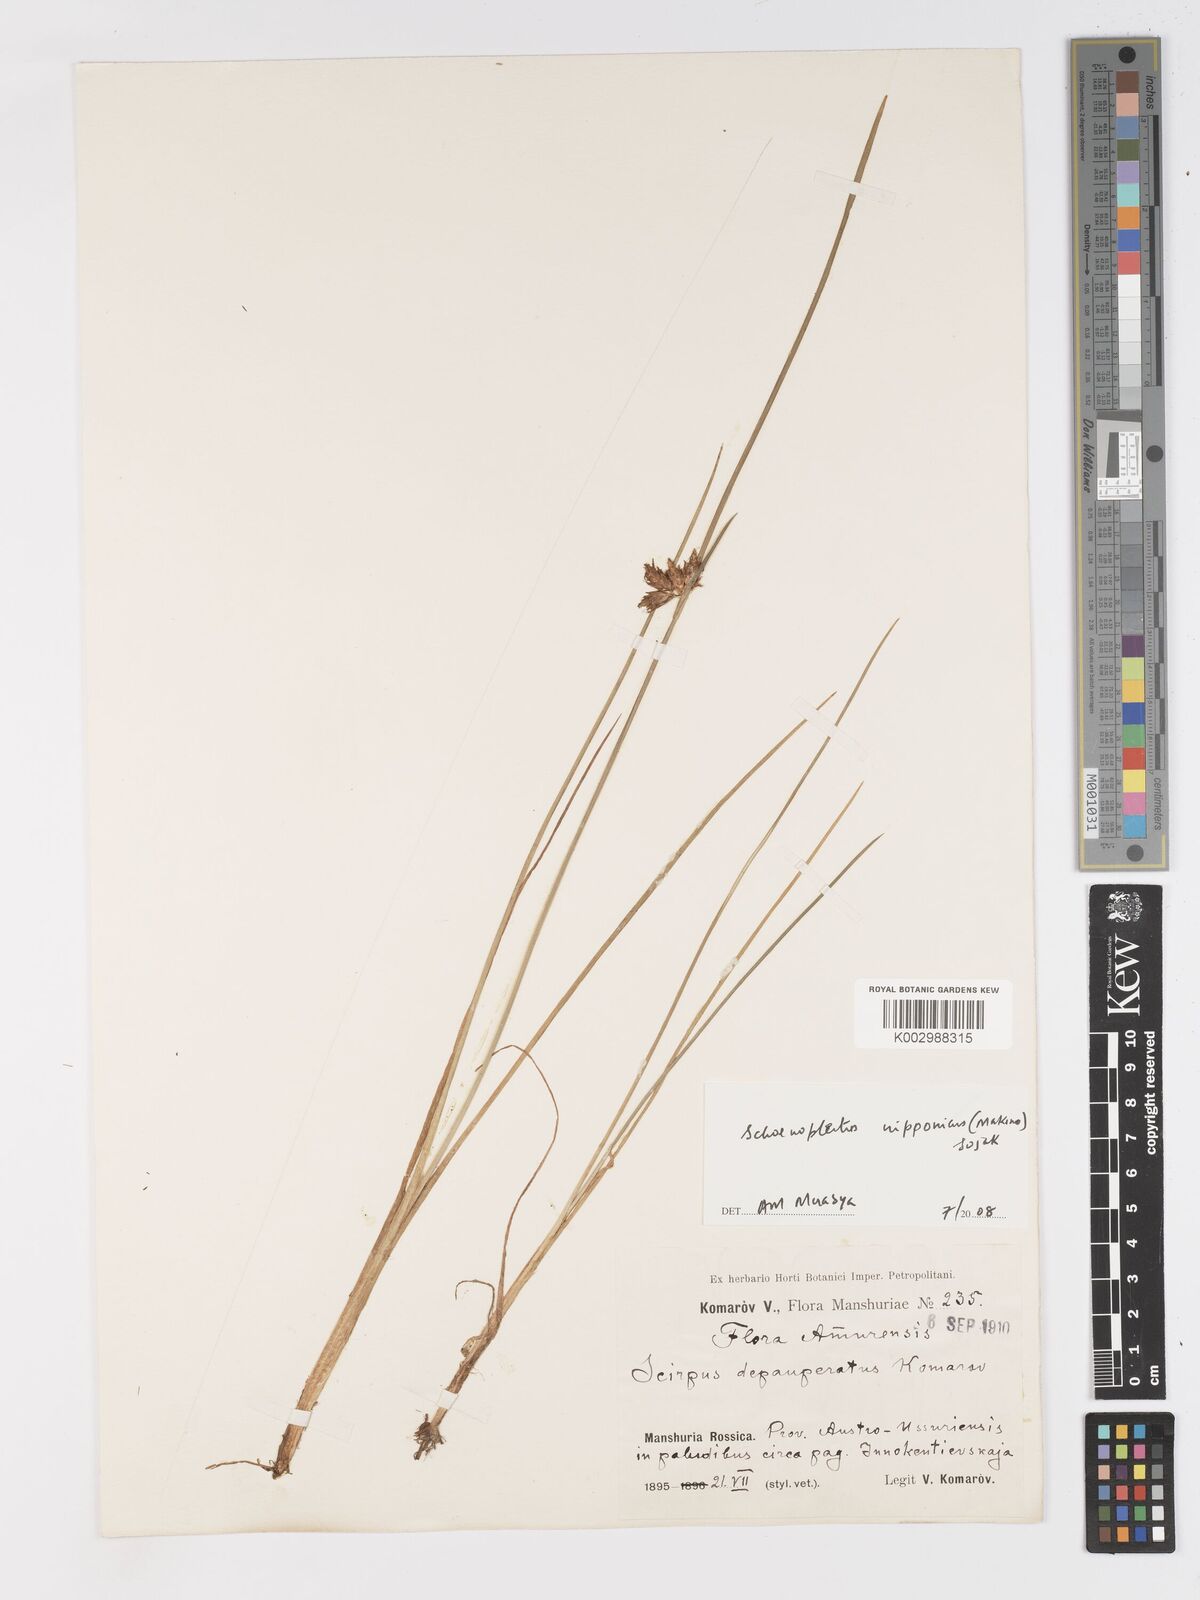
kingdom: Plantae
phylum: Tracheophyta
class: Liliopsida
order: Poales
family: Cyperaceae
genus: Schoenoplectus
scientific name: Schoenoplectus
